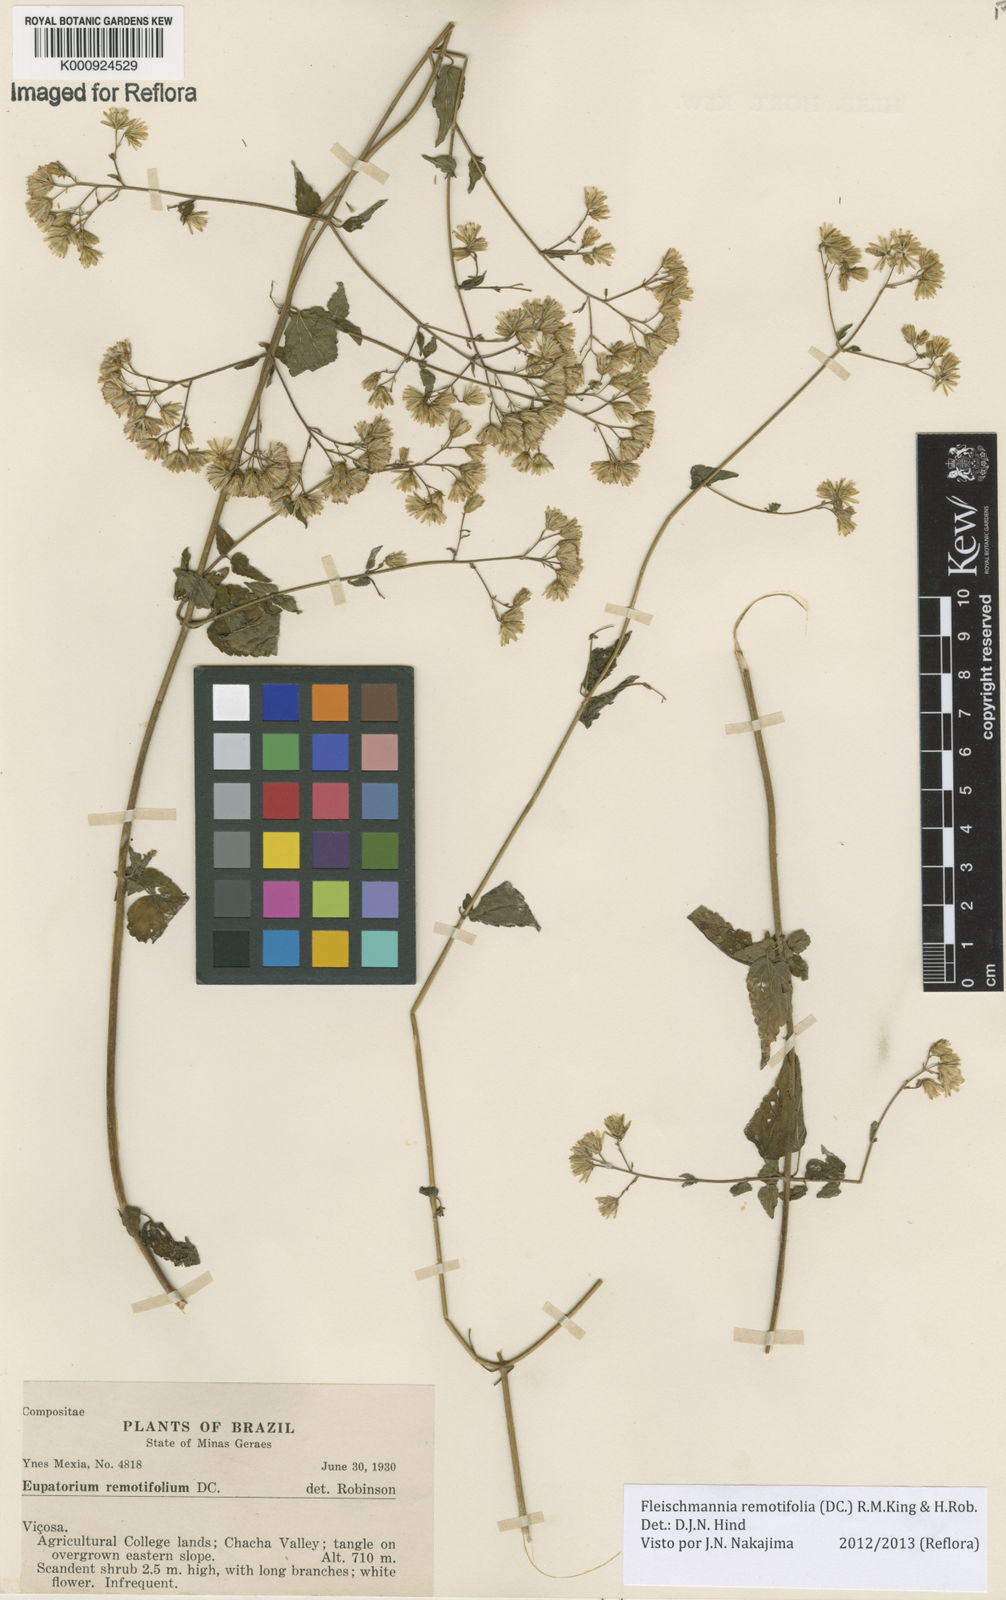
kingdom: Plantae
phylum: Tracheophyta
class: Magnoliopsida
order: Asterales
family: Asteraceae
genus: Fleischmannia
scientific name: Fleischmannia remotifolia
